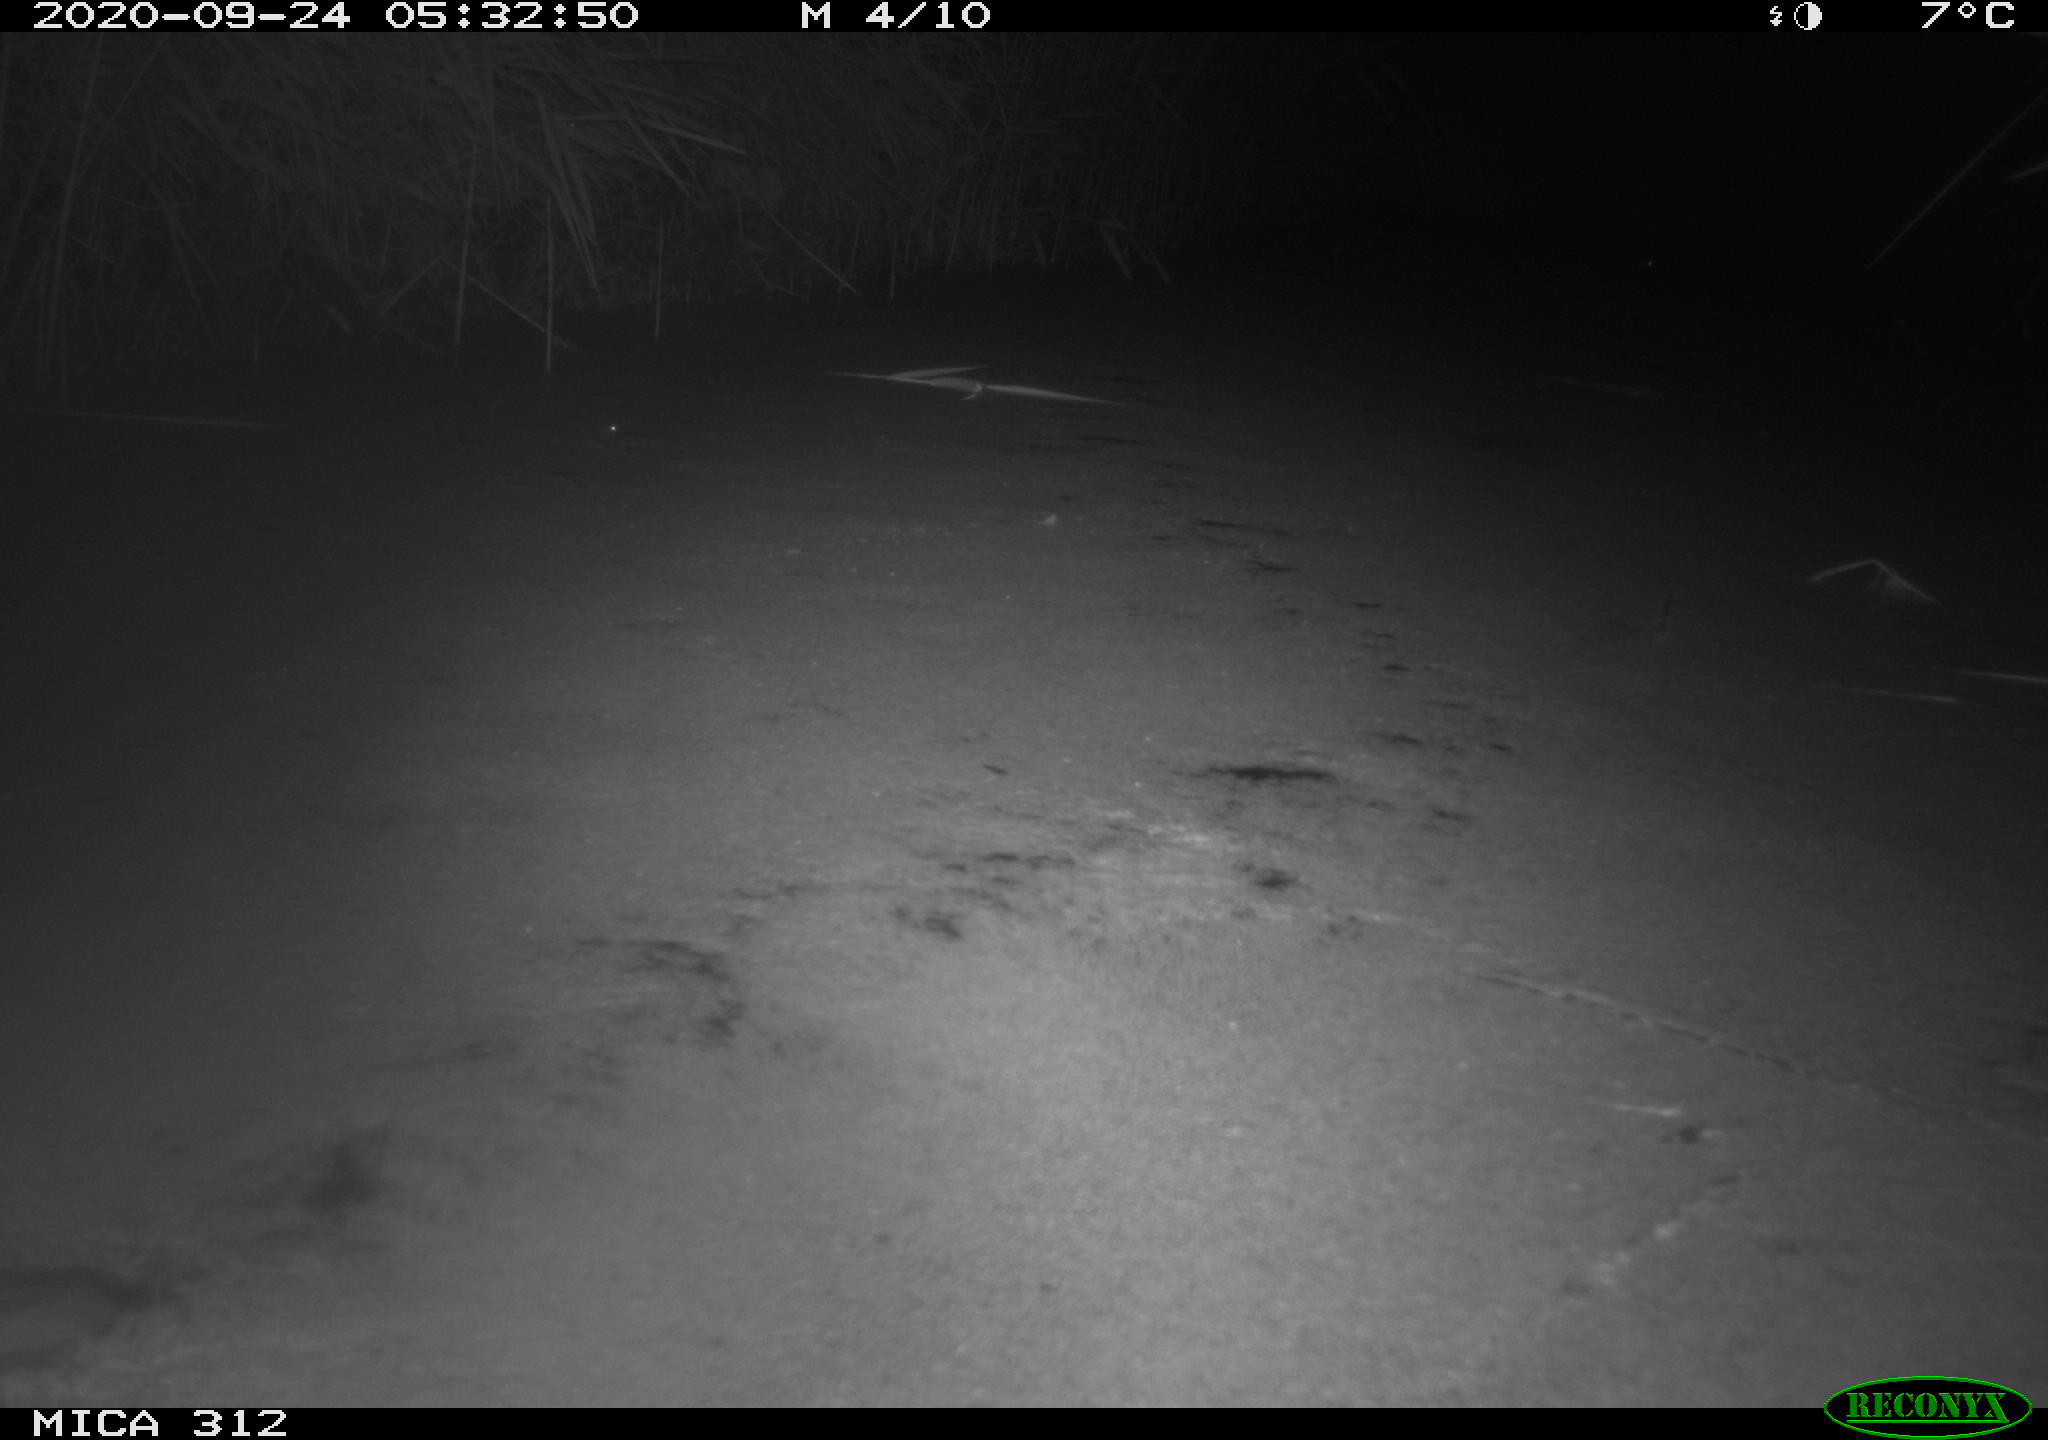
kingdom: Animalia
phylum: Chordata
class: Mammalia
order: Rodentia
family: Muridae
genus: Rattus
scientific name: Rattus norvegicus
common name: Brown rat
